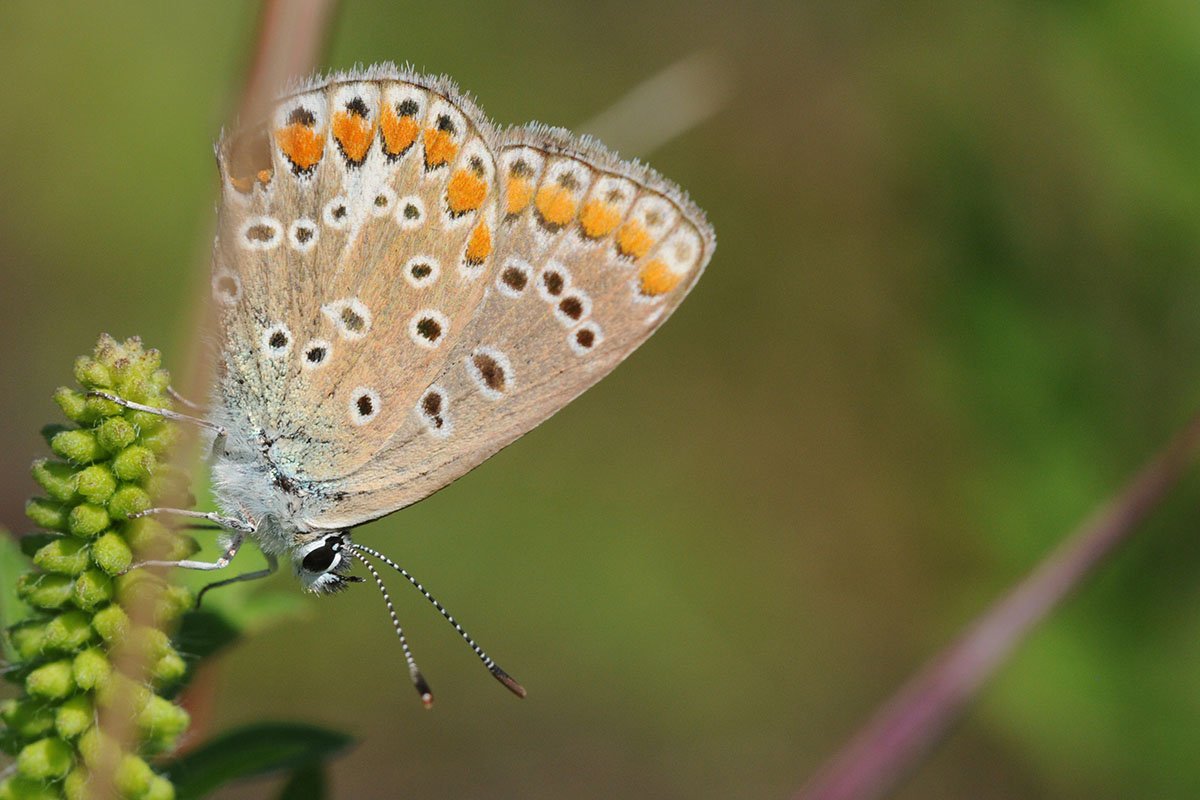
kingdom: Animalia
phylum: Arthropoda
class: Insecta
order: Lepidoptera
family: Lycaenidae
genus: Polyommatus
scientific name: Polyommatus icarus
